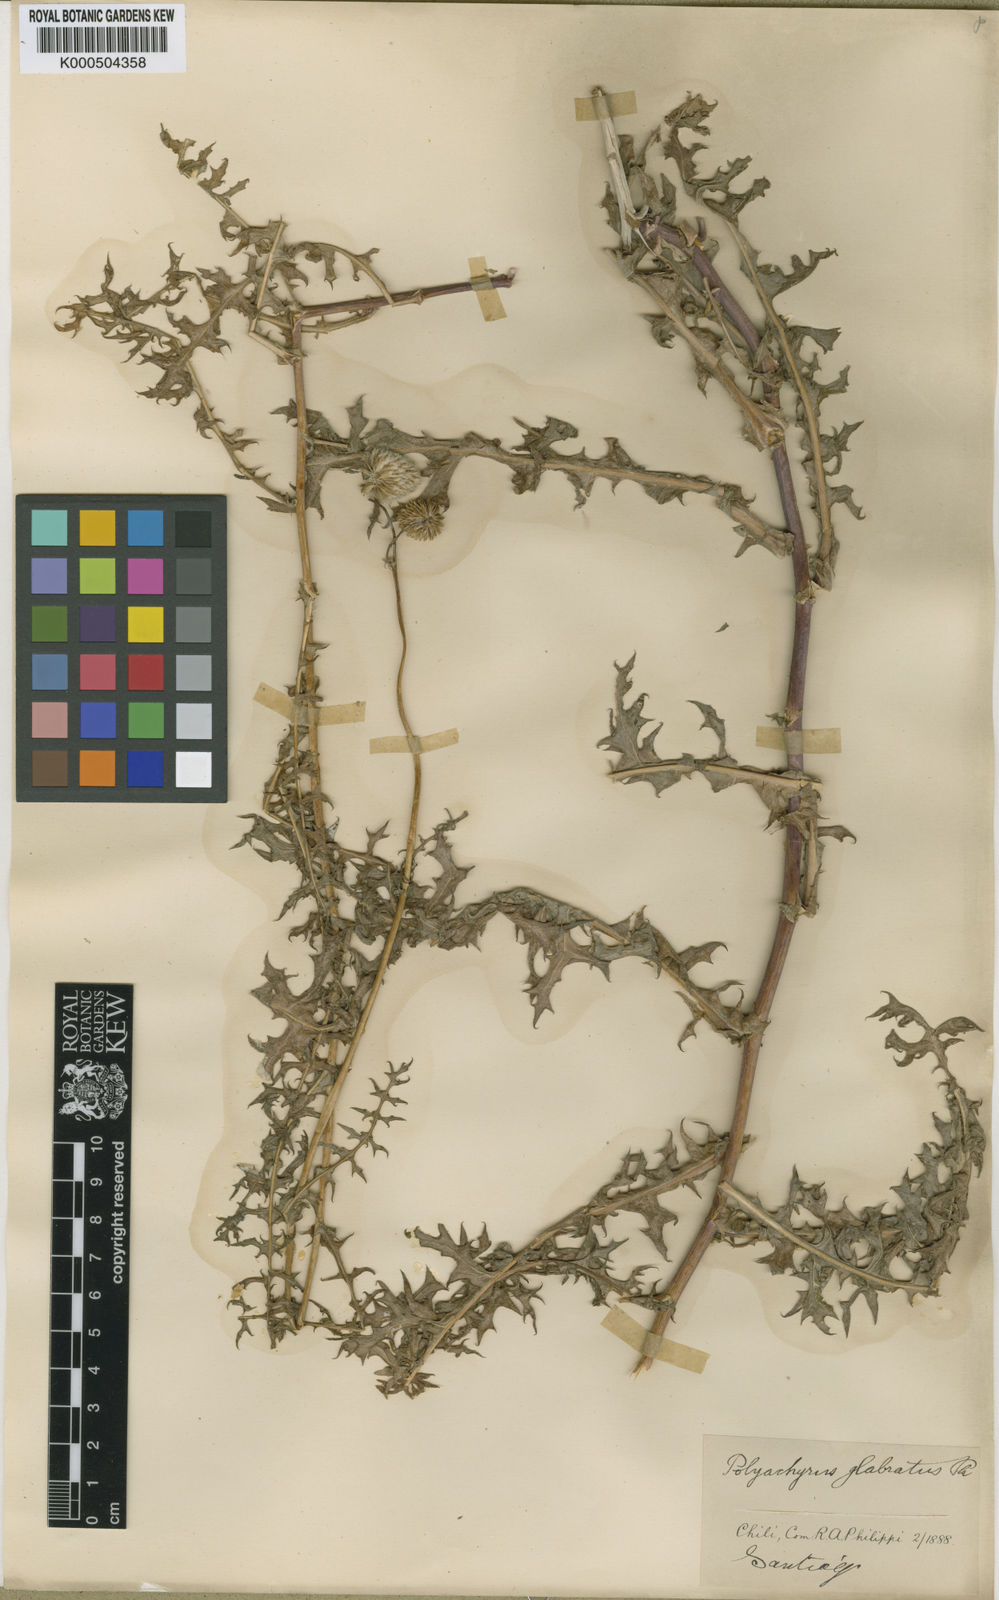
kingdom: Plantae
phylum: Tracheophyta
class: Magnoliopsida
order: Asterales
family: Asteraceae
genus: Polyachyrus
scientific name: Polyachyrus carduoides
